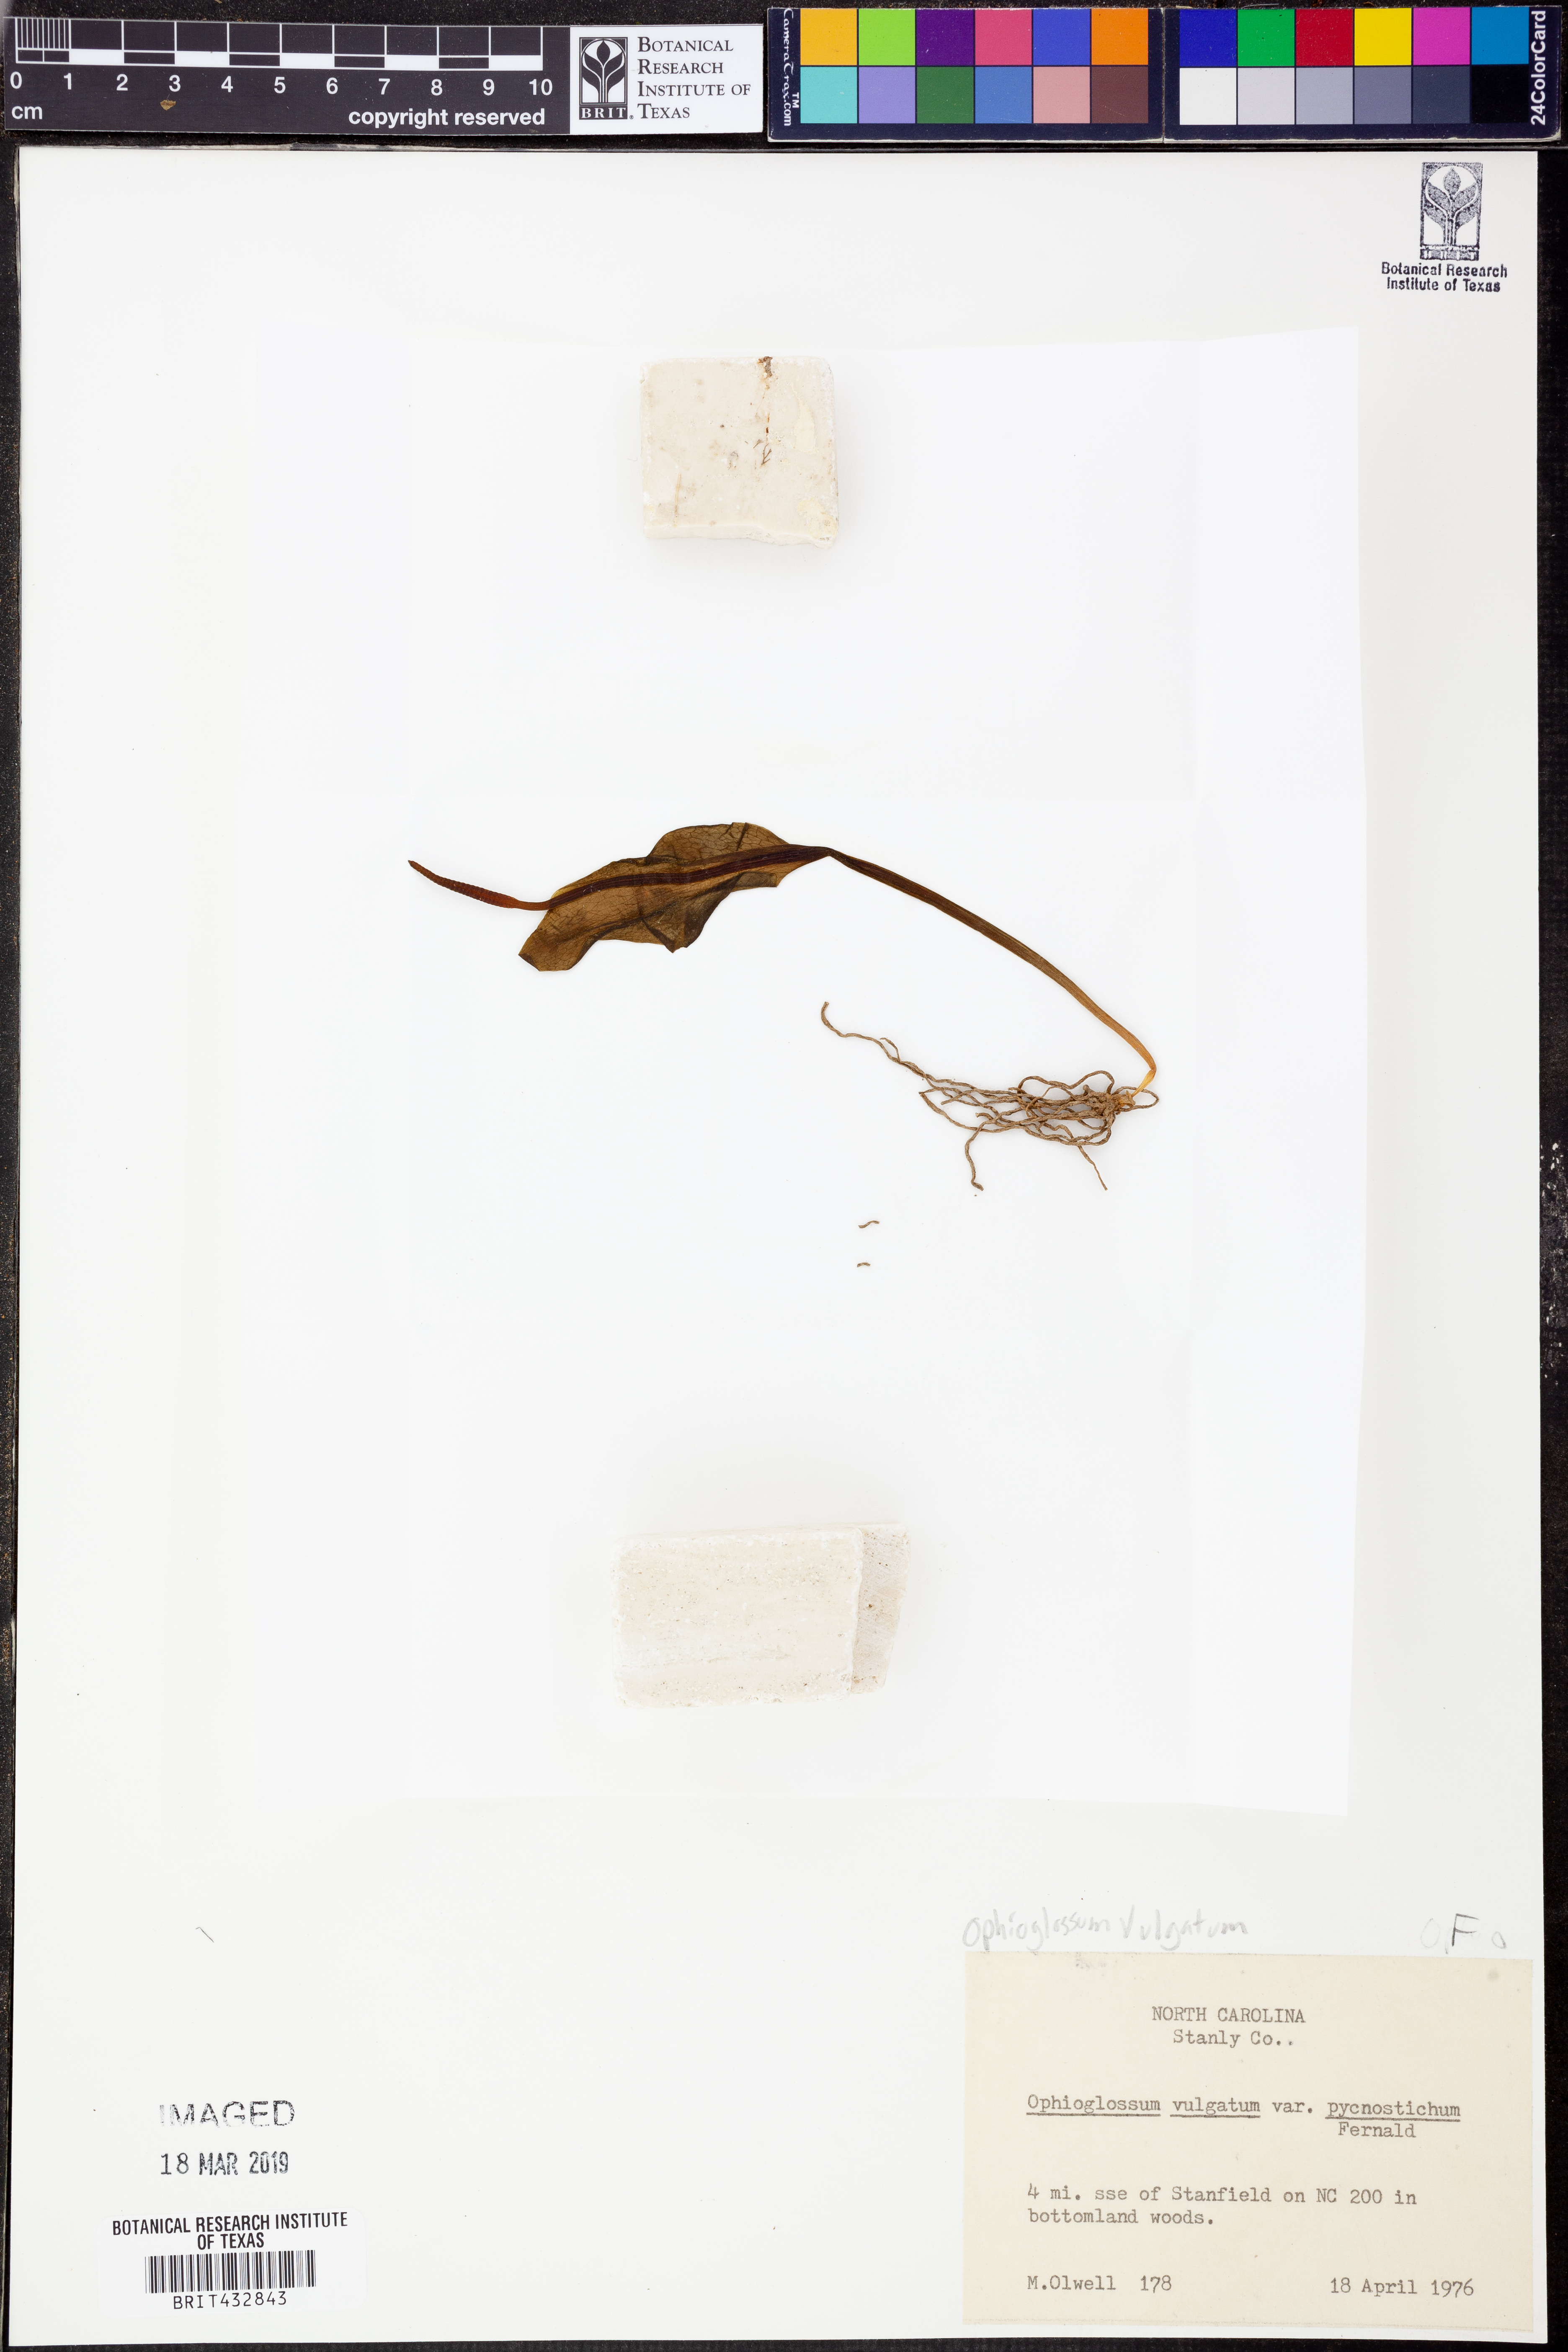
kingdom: Plantae
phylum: Tracheophyta
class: Polypodiopsida
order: Ophioglossales
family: Ophioglossaceae
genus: Ophioglossum
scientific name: Ophioglossum vulgatum
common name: Adder's-tongue
